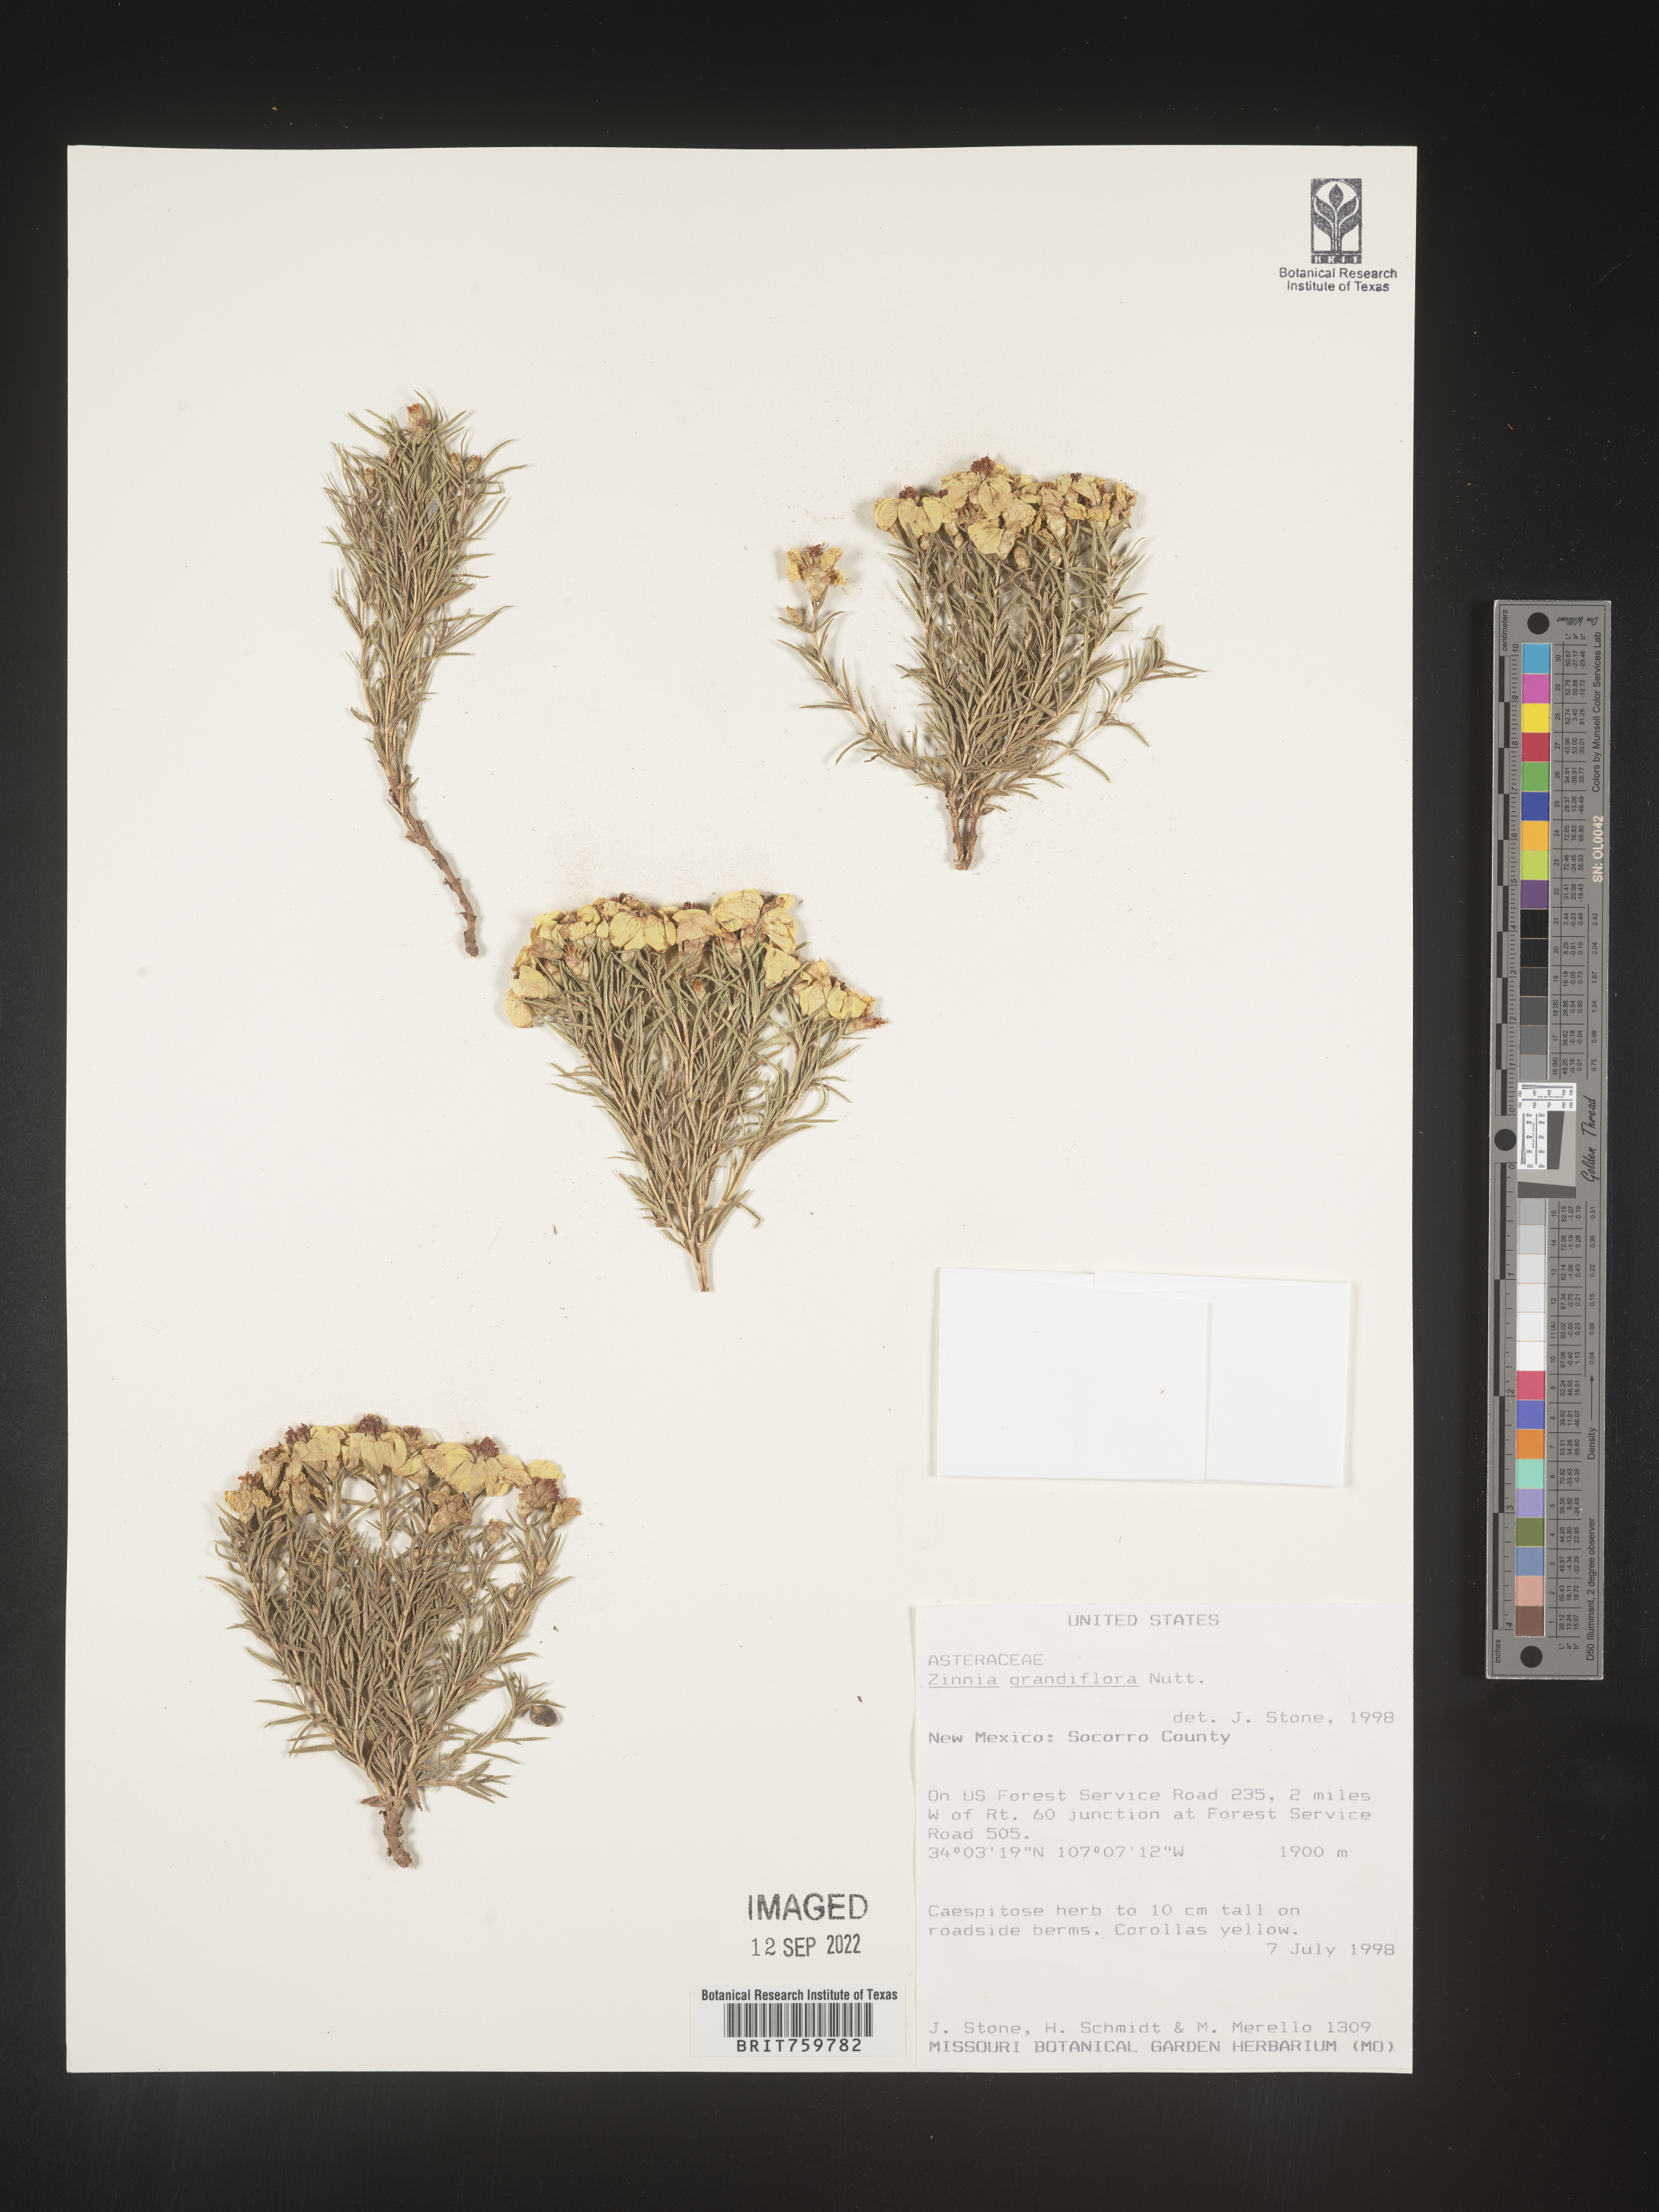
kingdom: Plantae
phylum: Tracheophyta
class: Magnoliopsida
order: Asterales
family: Asteraceae
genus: Zinnia
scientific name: Zinnia grandiflora
